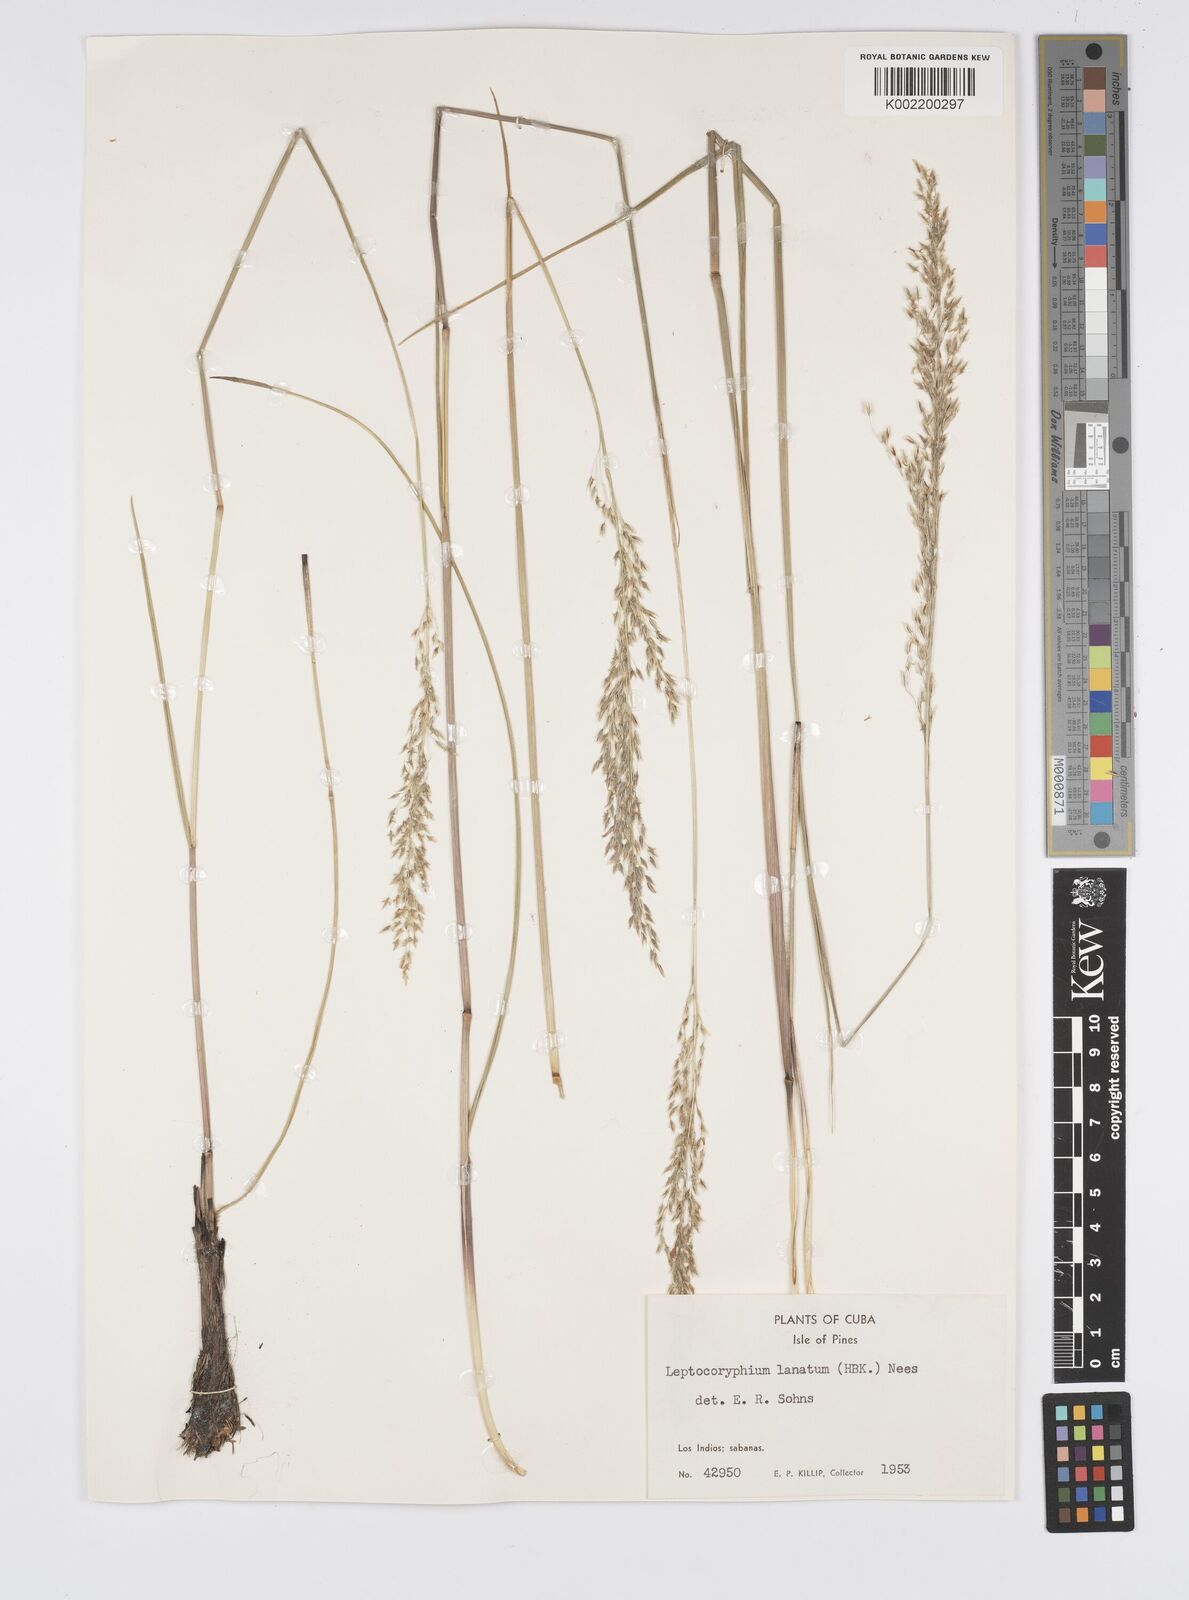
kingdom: Plantae
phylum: Tracheophyta
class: Liliopsida
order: Poales
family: Poaceae
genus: Anthenantia
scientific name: Anthenantia lanata
